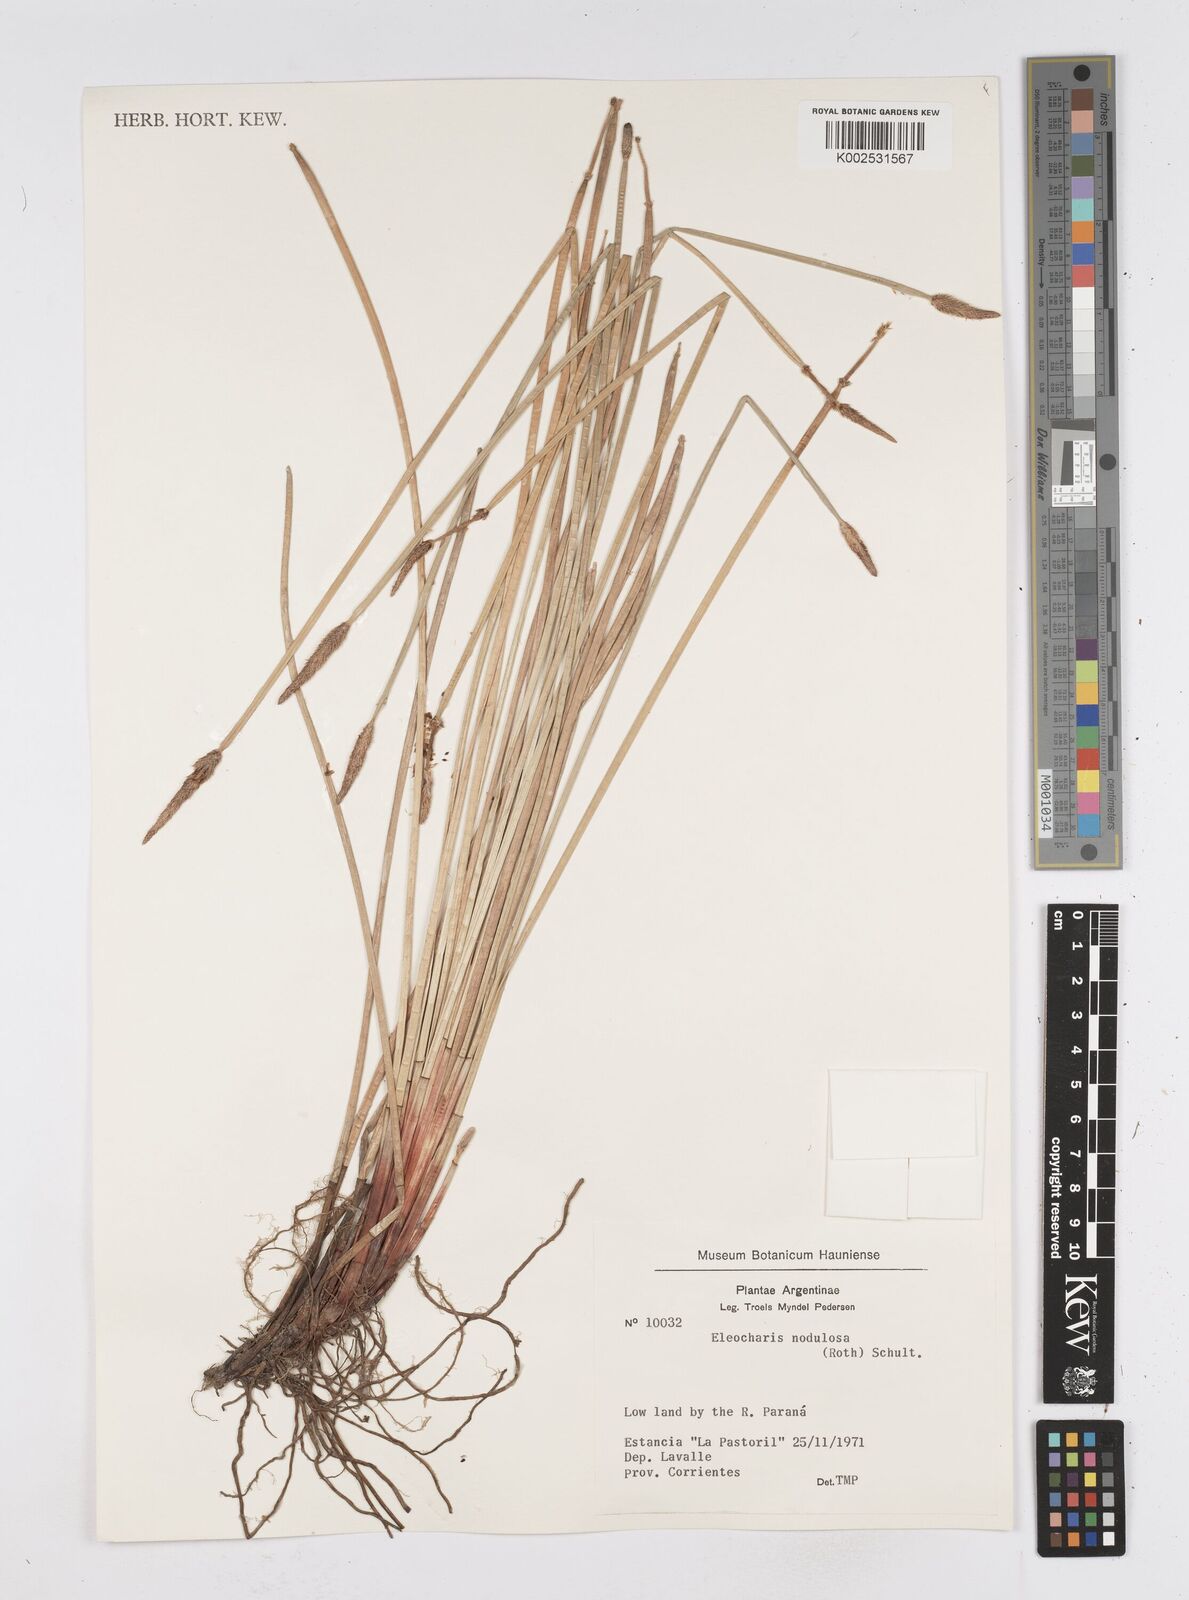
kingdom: Plantae
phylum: Tracheophyta
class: Liliopsida
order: Poales
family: Cyperaceae
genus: Eleocharis
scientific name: Eleocharis montana
